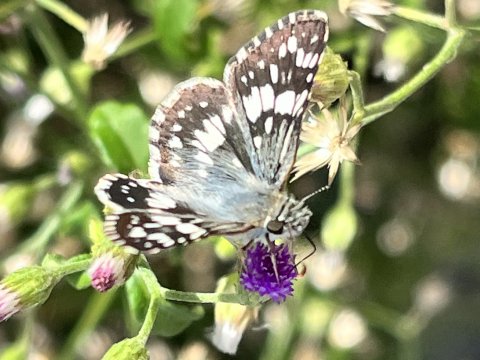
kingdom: Animalia
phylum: Arthropoda
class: Insecta
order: Lepidoptera
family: Hesperiidae
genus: Pyrgus
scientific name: Pyrgus communis
